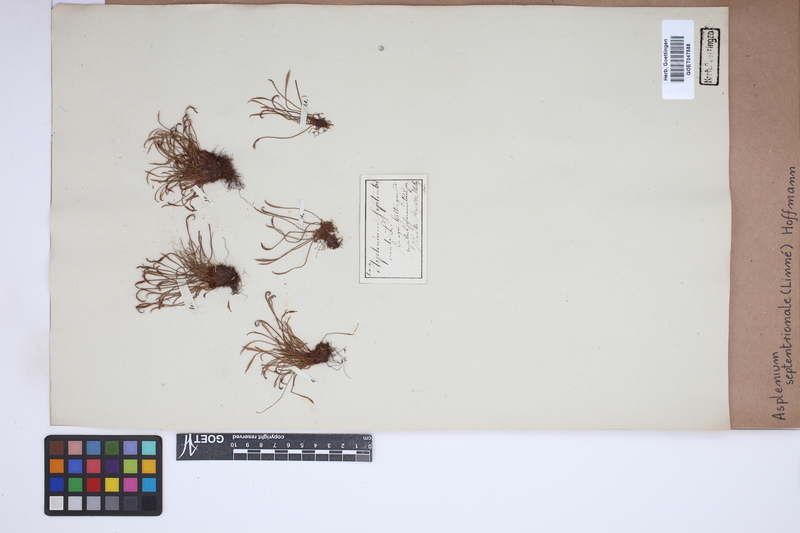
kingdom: Plantae
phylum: Tracheophyta
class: Polypodiopsida
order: Polypodiales
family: Aspleniaceae
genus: Asplenium
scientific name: Asplenium septentrionale
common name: Forked spleenwort
